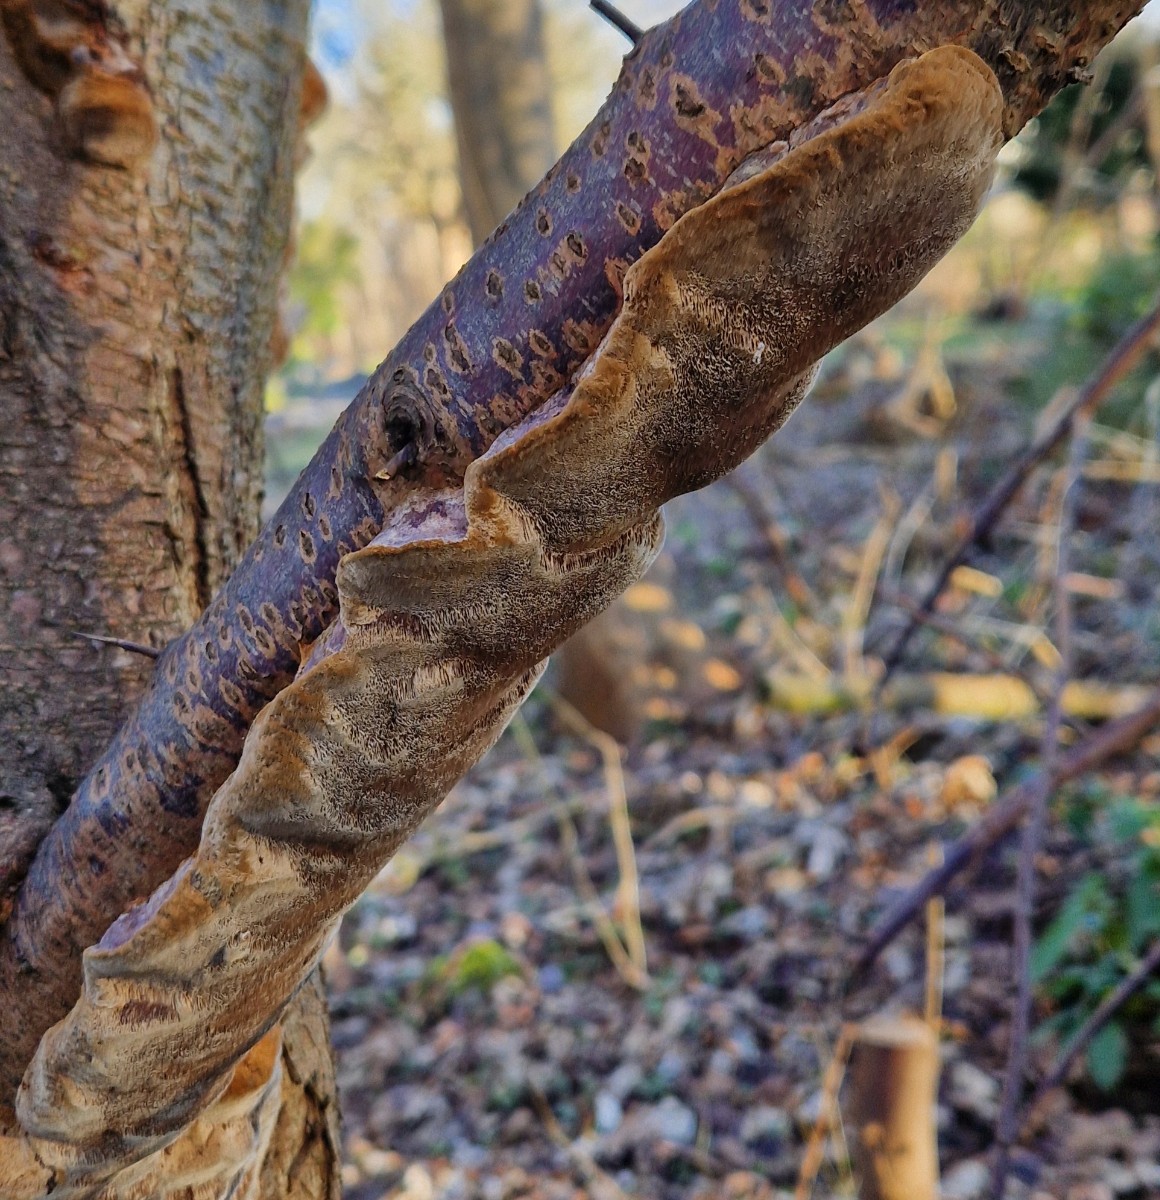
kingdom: Fungi
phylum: Basidiomycota
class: Agaricomycetes
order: Hymenochaetales
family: Hymenochaetaceae
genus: Phellinus
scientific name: Phellinus pomaceus
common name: blomme-ildporesvamp
